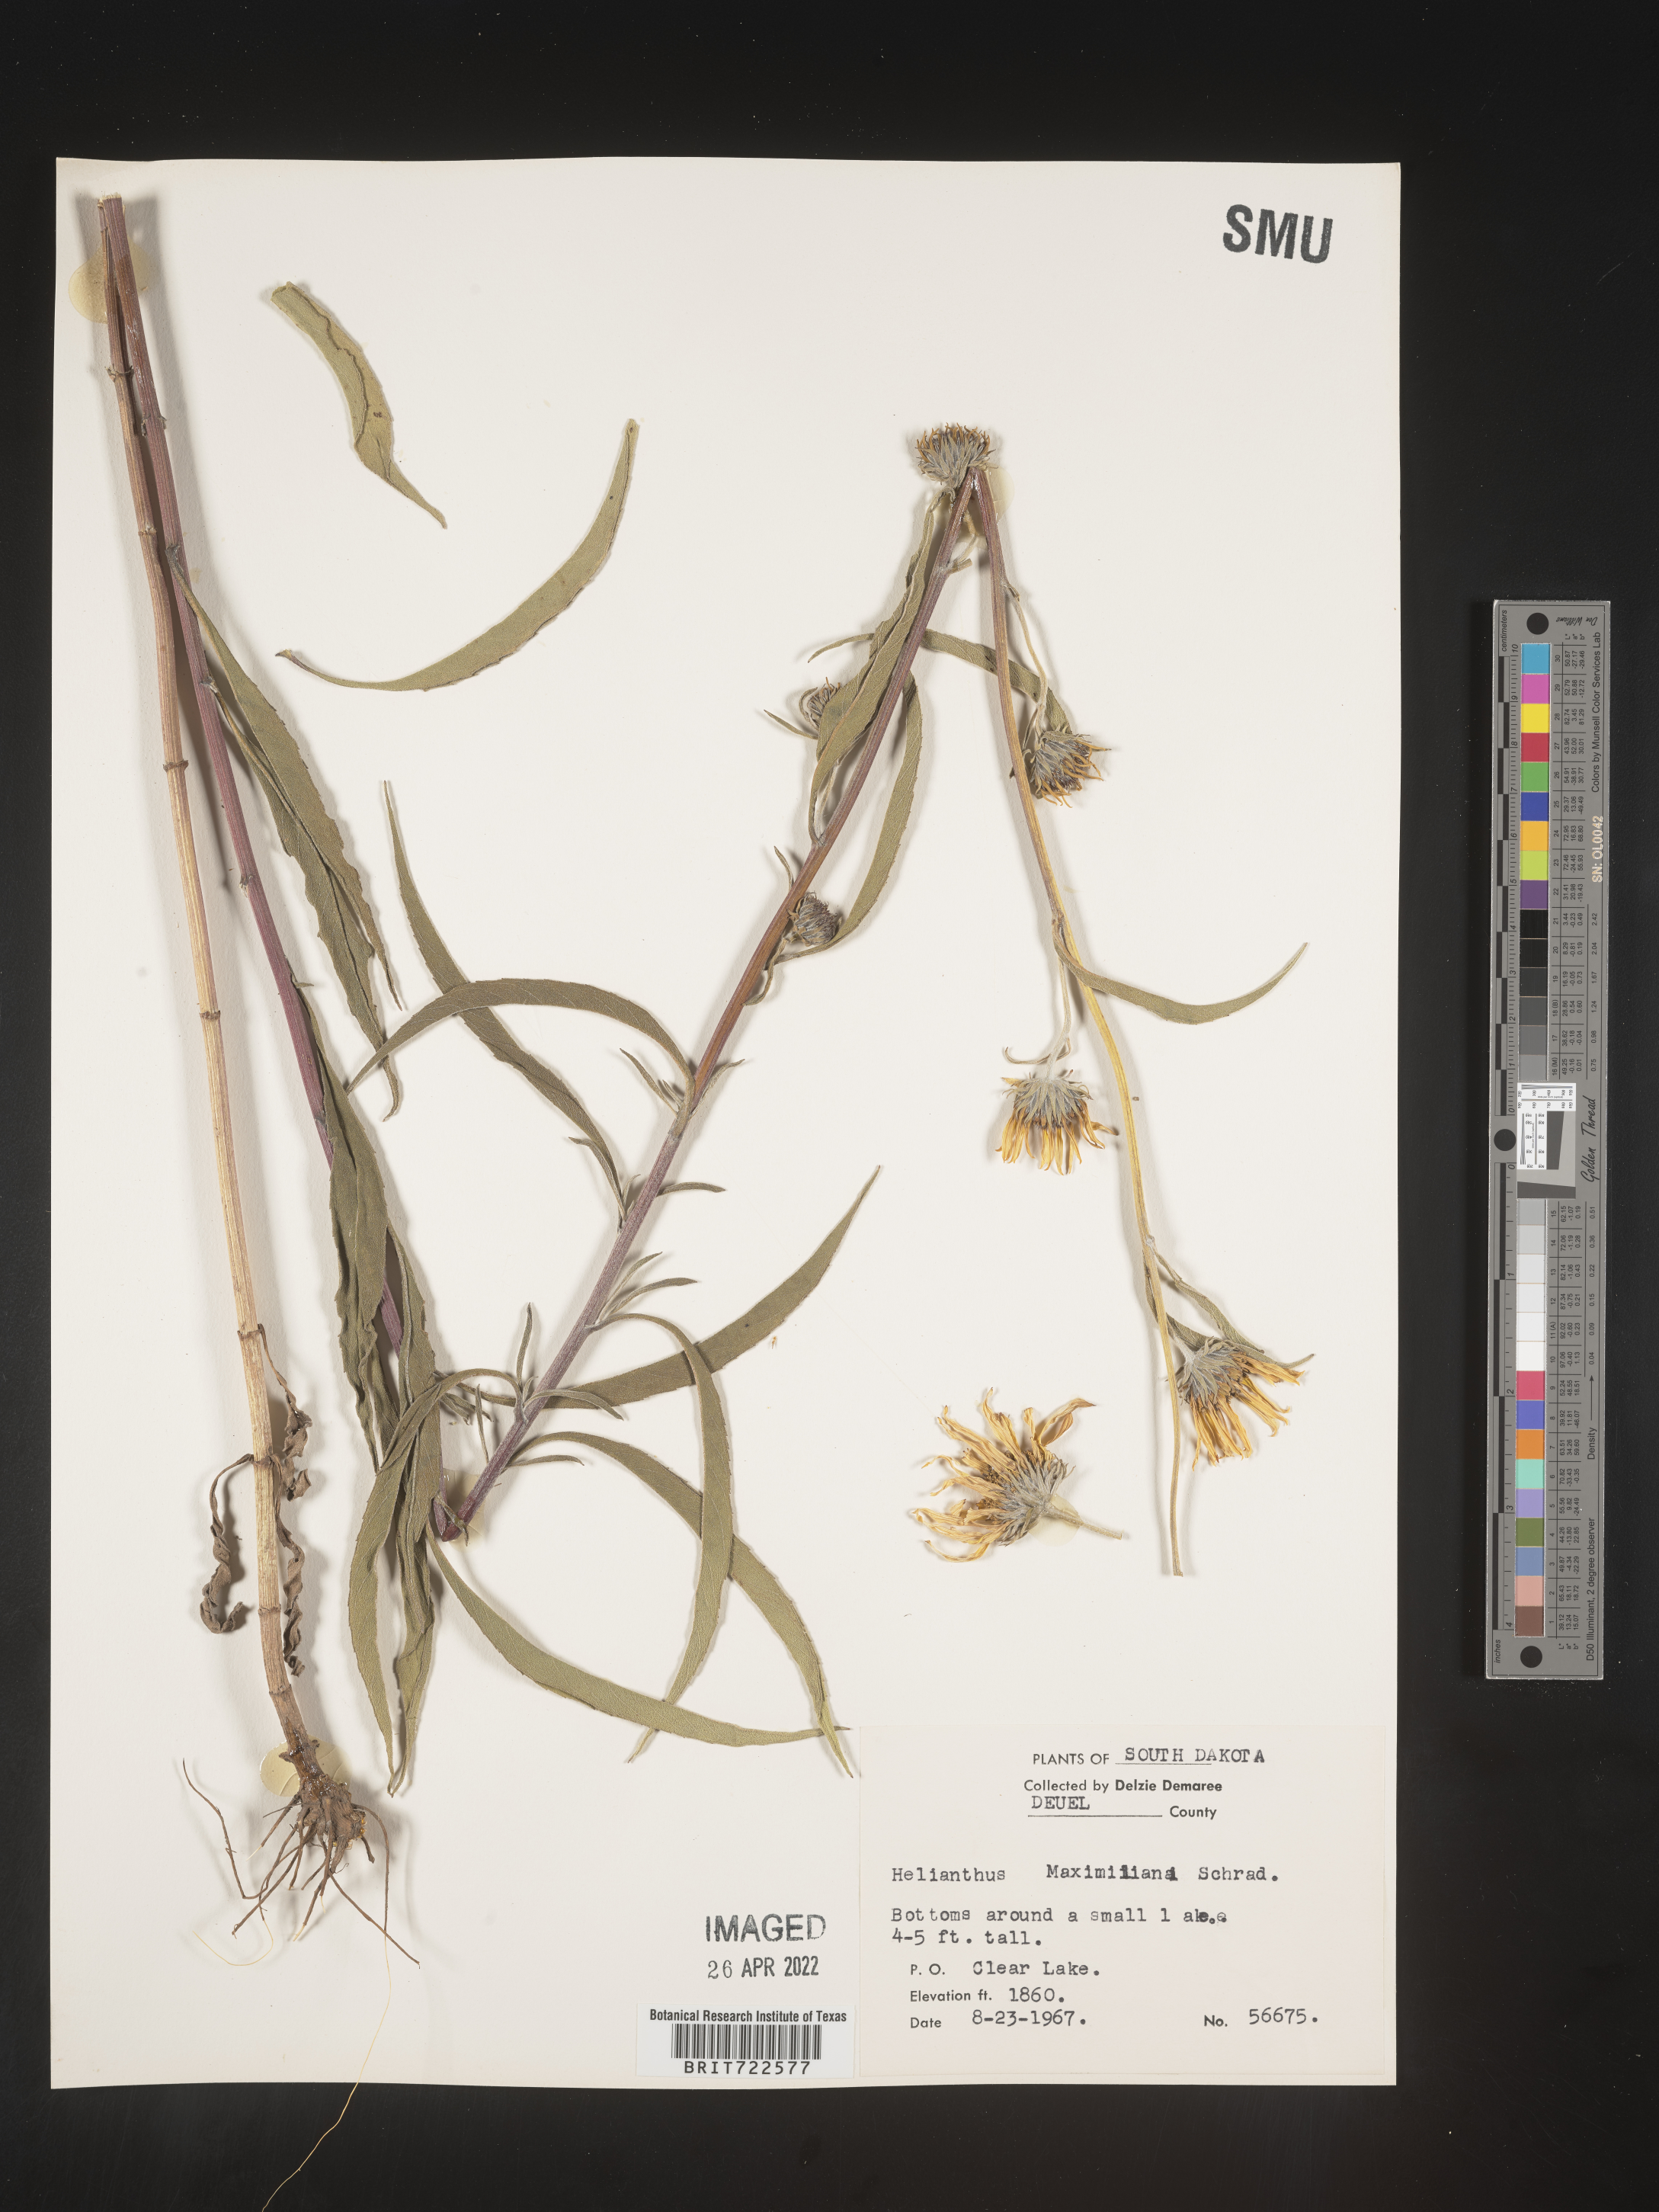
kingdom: Plantae
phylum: Tracheophyta
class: Magnoliopsida
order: Asterales
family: Asteraceae
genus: Helianthus
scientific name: Helianthus maximiliani
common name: Maximilian's sunflower
